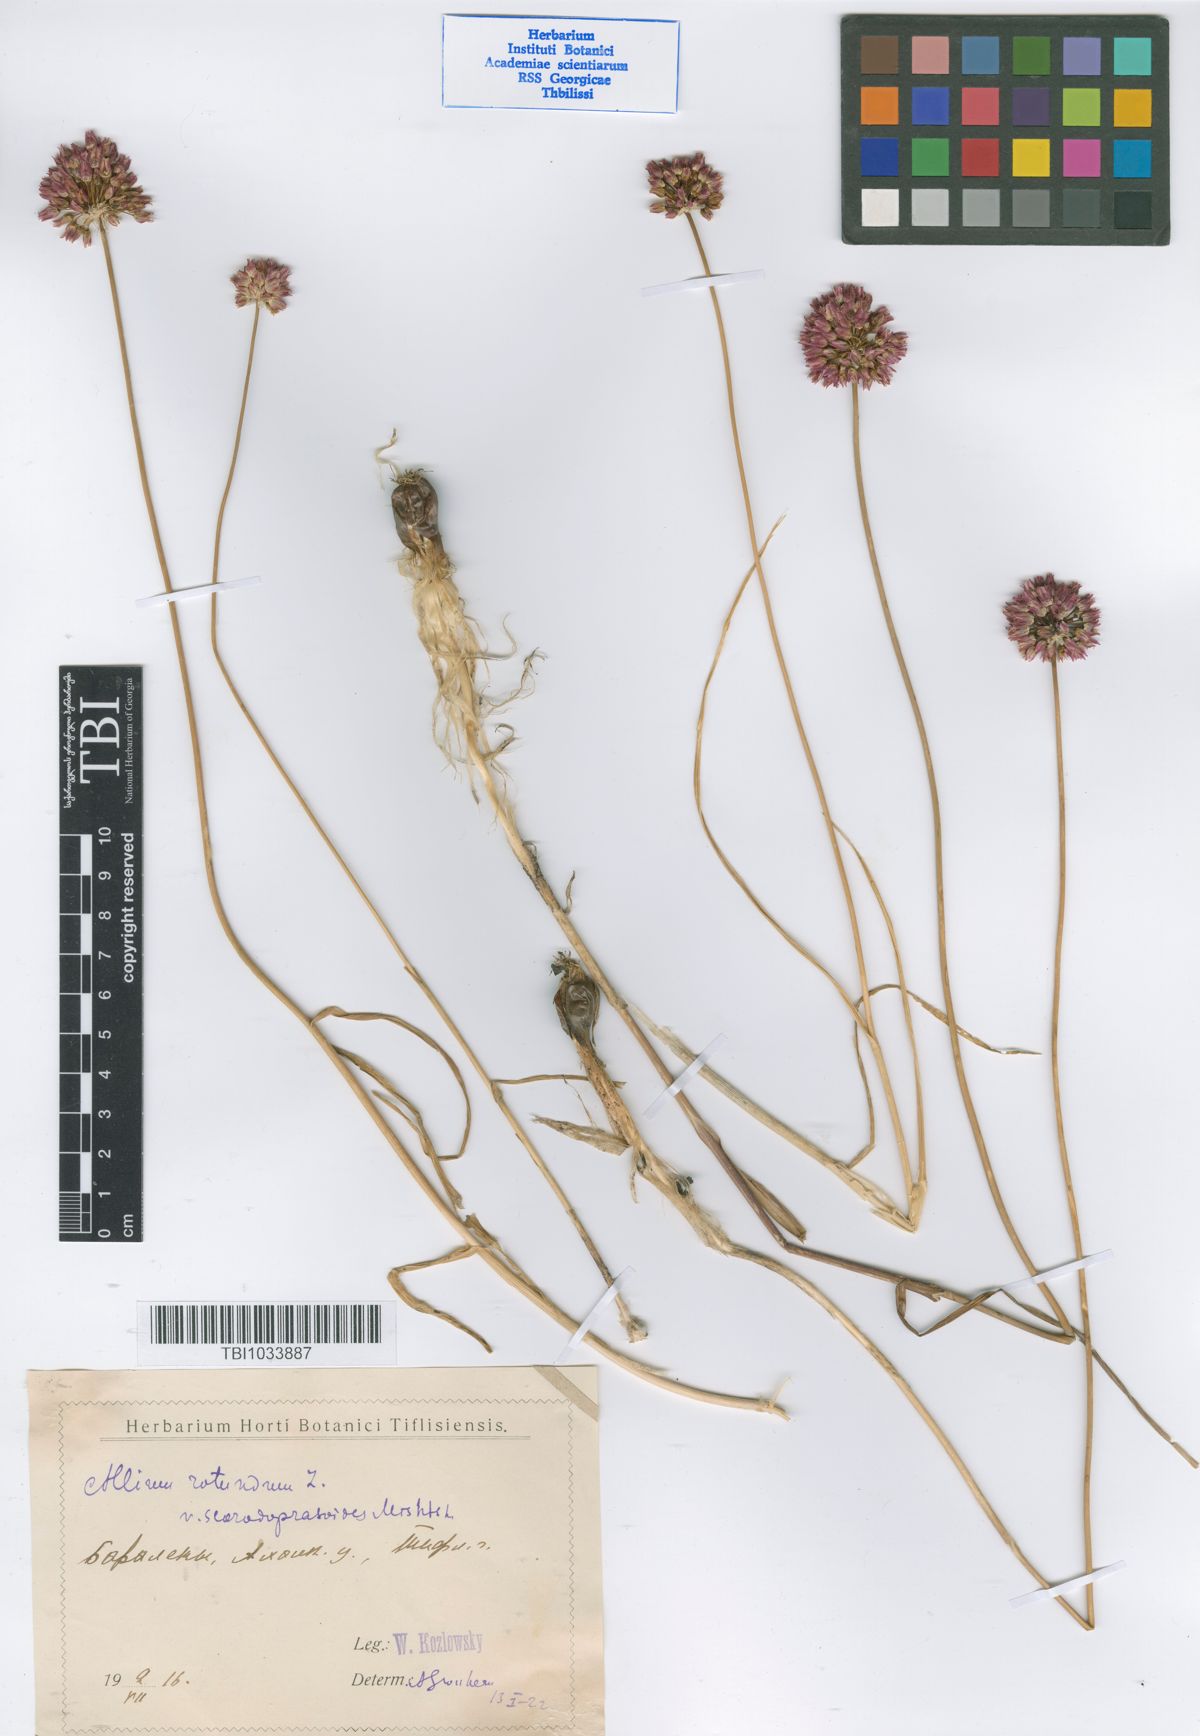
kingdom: Plantae
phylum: Tracheophyta
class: Liliopsida
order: Asparagales
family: Amaryllidaceae
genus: Allium
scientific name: Allium rotundum
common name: Sand leek
